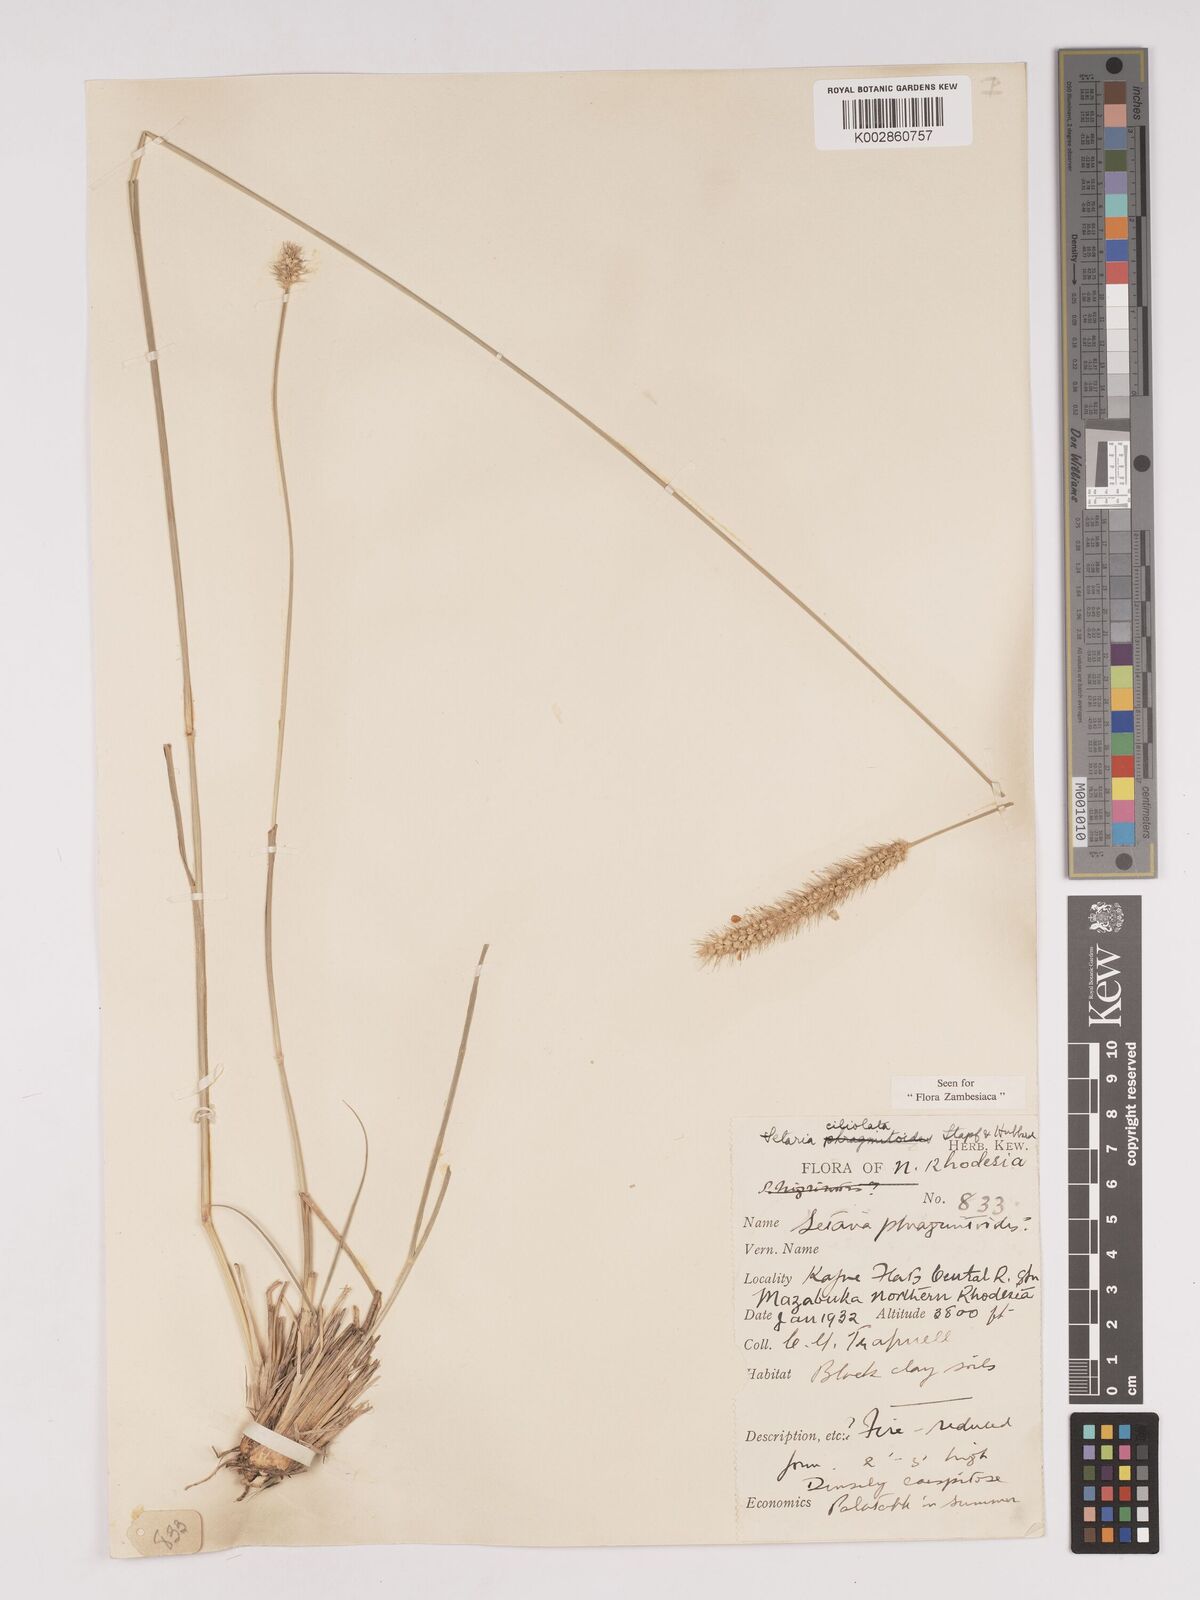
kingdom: Plantae
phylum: Tracheophyta
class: Liliopsida
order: Poales
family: Poaceae
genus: Setaria
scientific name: Setaria incrassata
